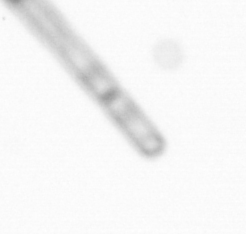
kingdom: Chromista
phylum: Ochrophyta
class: Bacillariophyceae
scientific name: Bacillariophyceae
